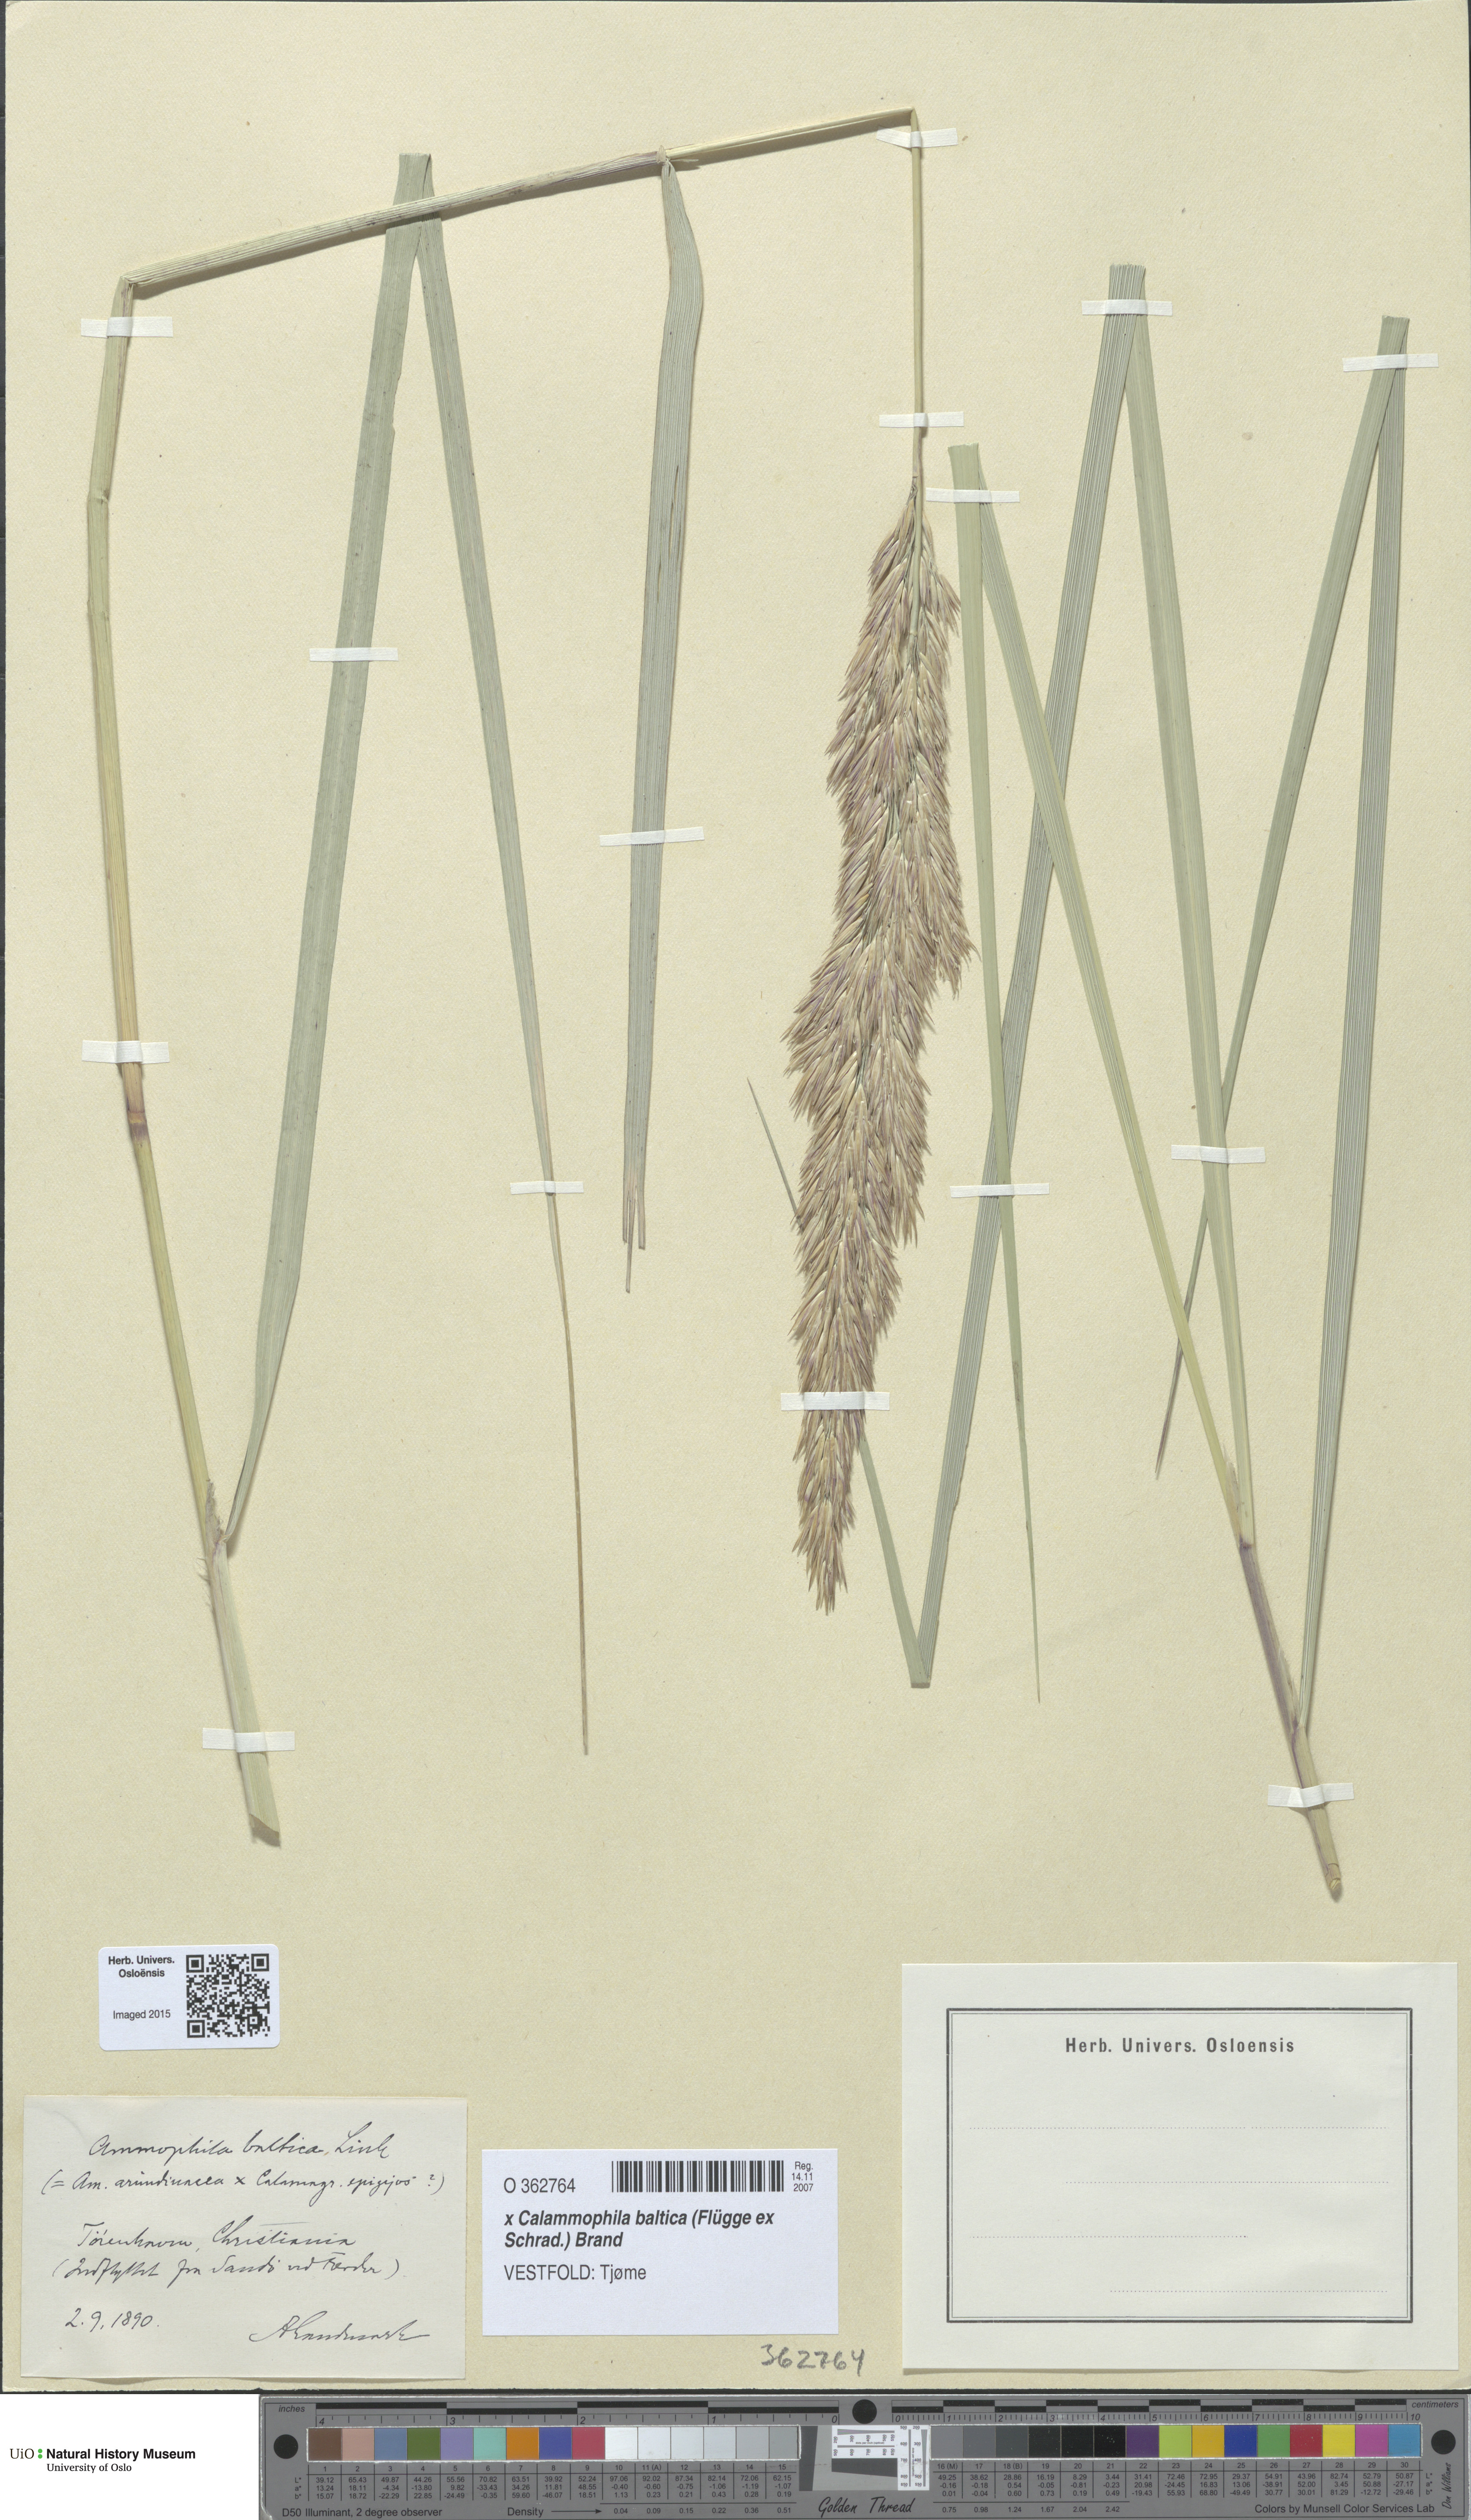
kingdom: Plantae
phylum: Tracheophyta
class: Liliopsida
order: Poales
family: Poaceae
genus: Calamagrostis
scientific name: Calamagrostis baltica
